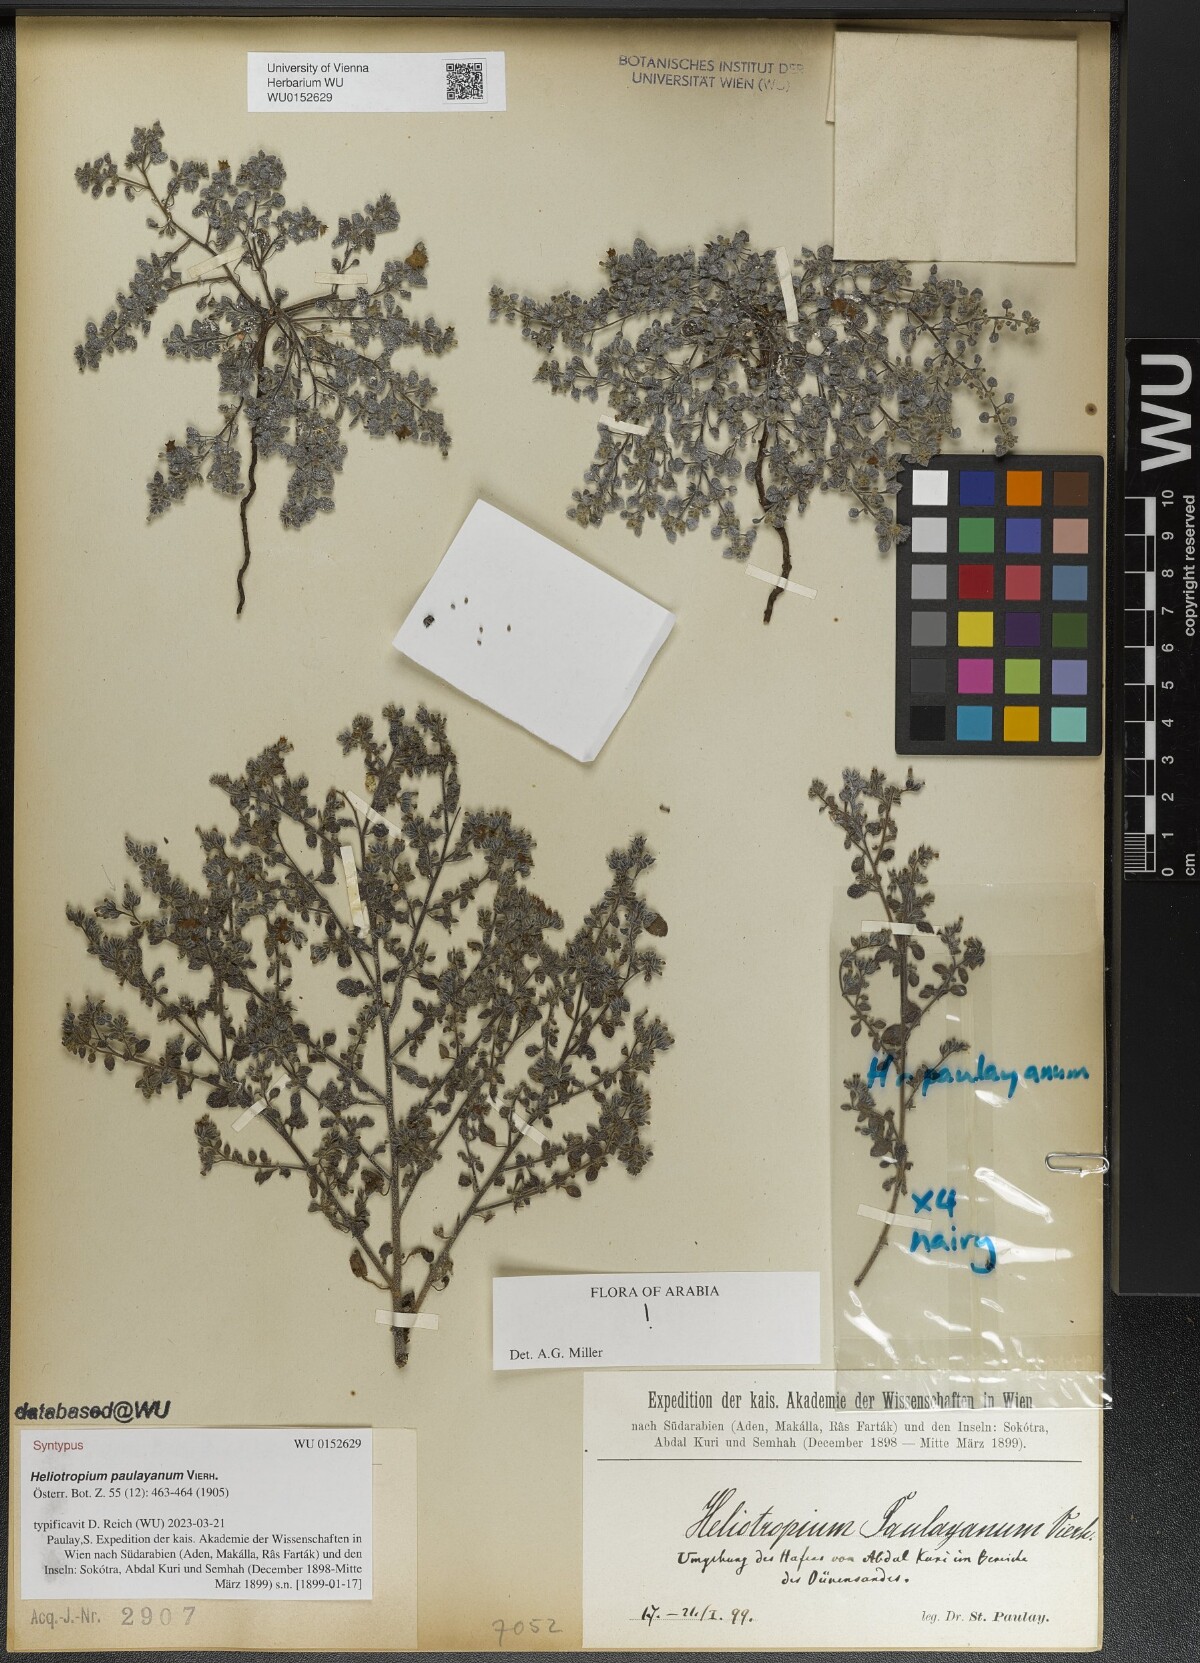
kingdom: Plantae
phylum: Tracheophyta
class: Magnoliopsida
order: Boraginales
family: Heliotropiaceae
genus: Heliotropium
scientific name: Heliotropium paulayanum
